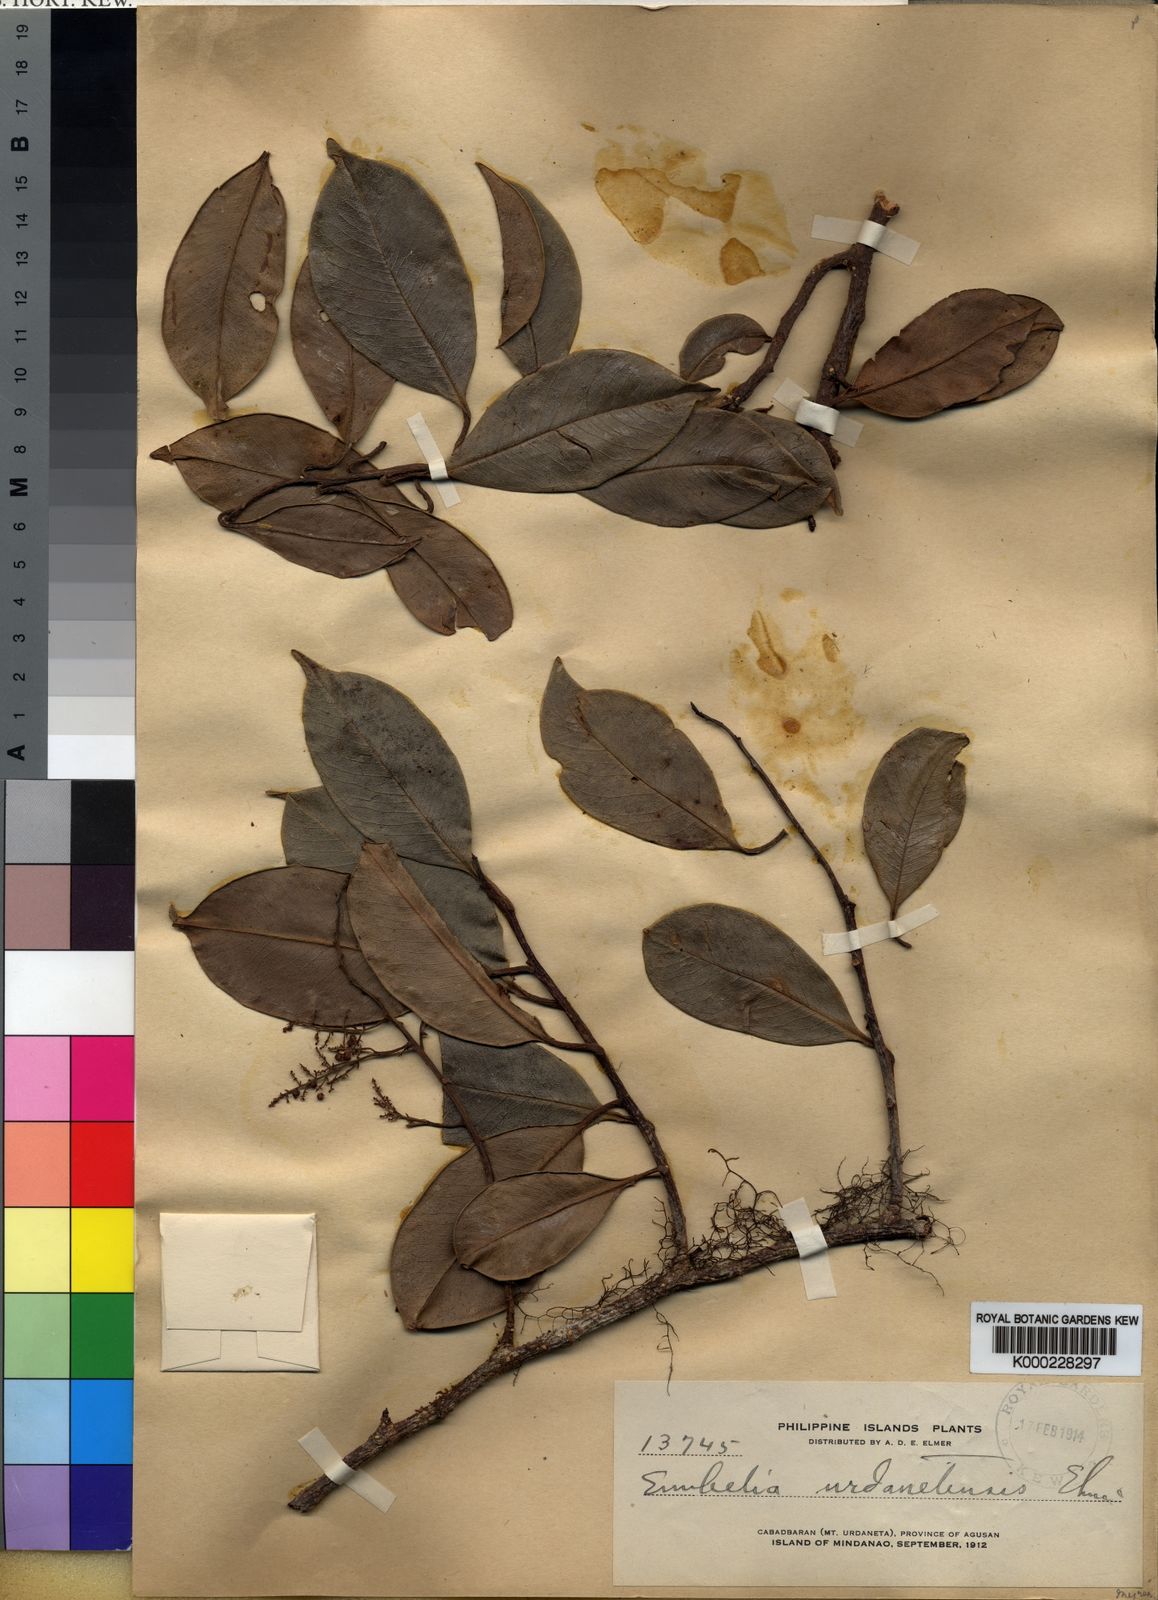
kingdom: Plantae
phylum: Tracheophyta
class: Magnoliopsida
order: Ericales
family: Primulaceae
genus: Embelia
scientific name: Embelia whitfordii
